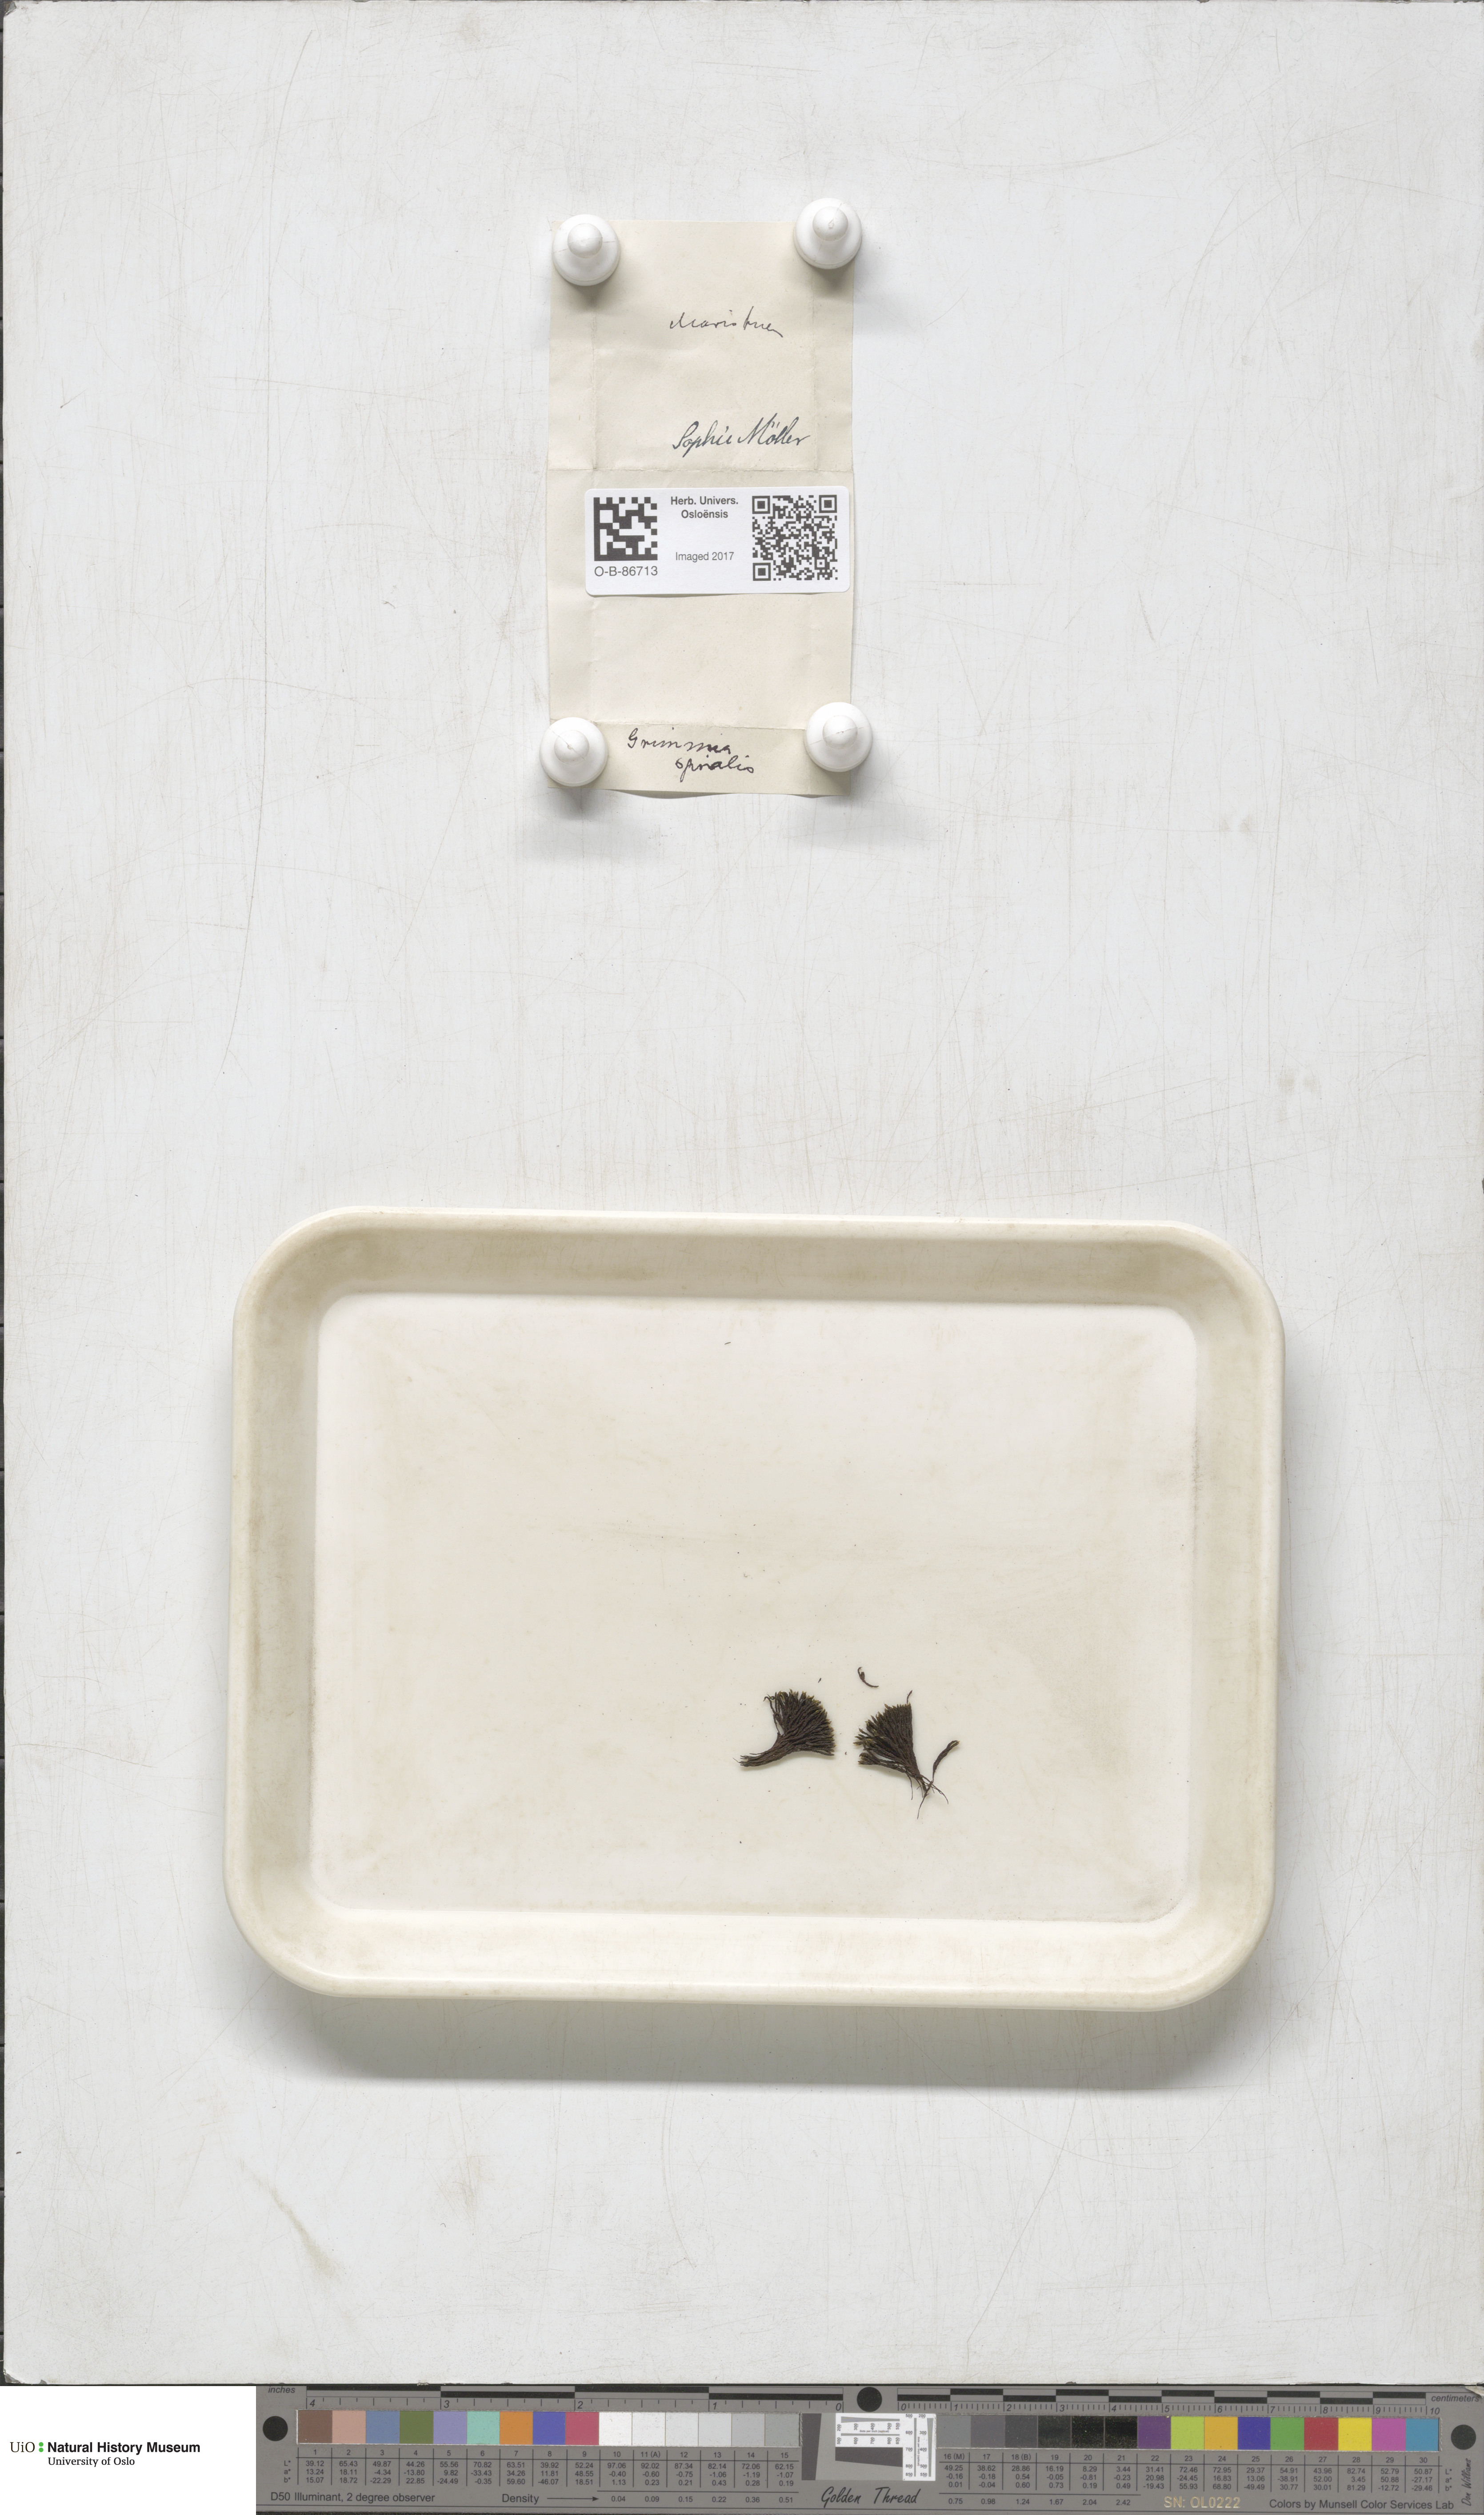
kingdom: Plantae
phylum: Bryophyta
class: Bryopsida
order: Grimmiales
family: Grimmiaceae
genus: Grimmia
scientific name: Grimmia funalis
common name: String grimmia
